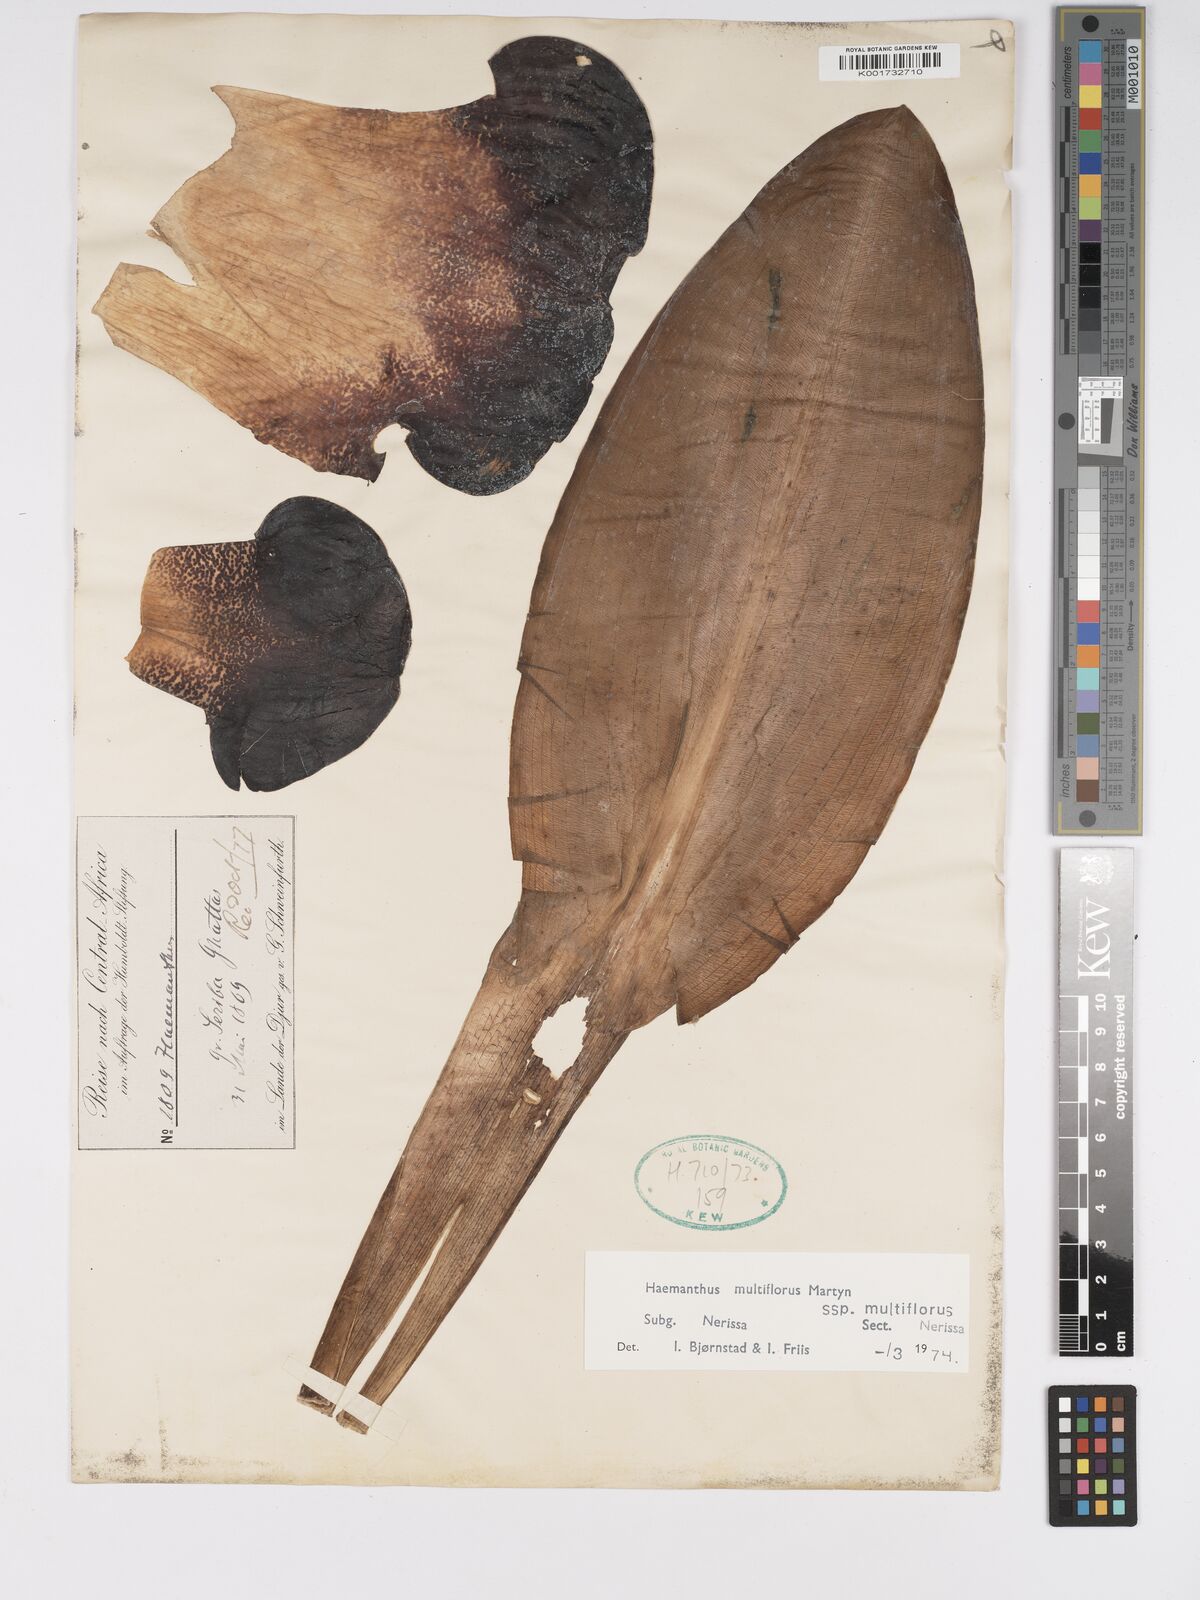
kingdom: Plantae
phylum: Tracheophyta
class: Liliopsida
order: Asparagales
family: Amaryllidaceae
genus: Scadoxus
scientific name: Scadoxus multiflorus
